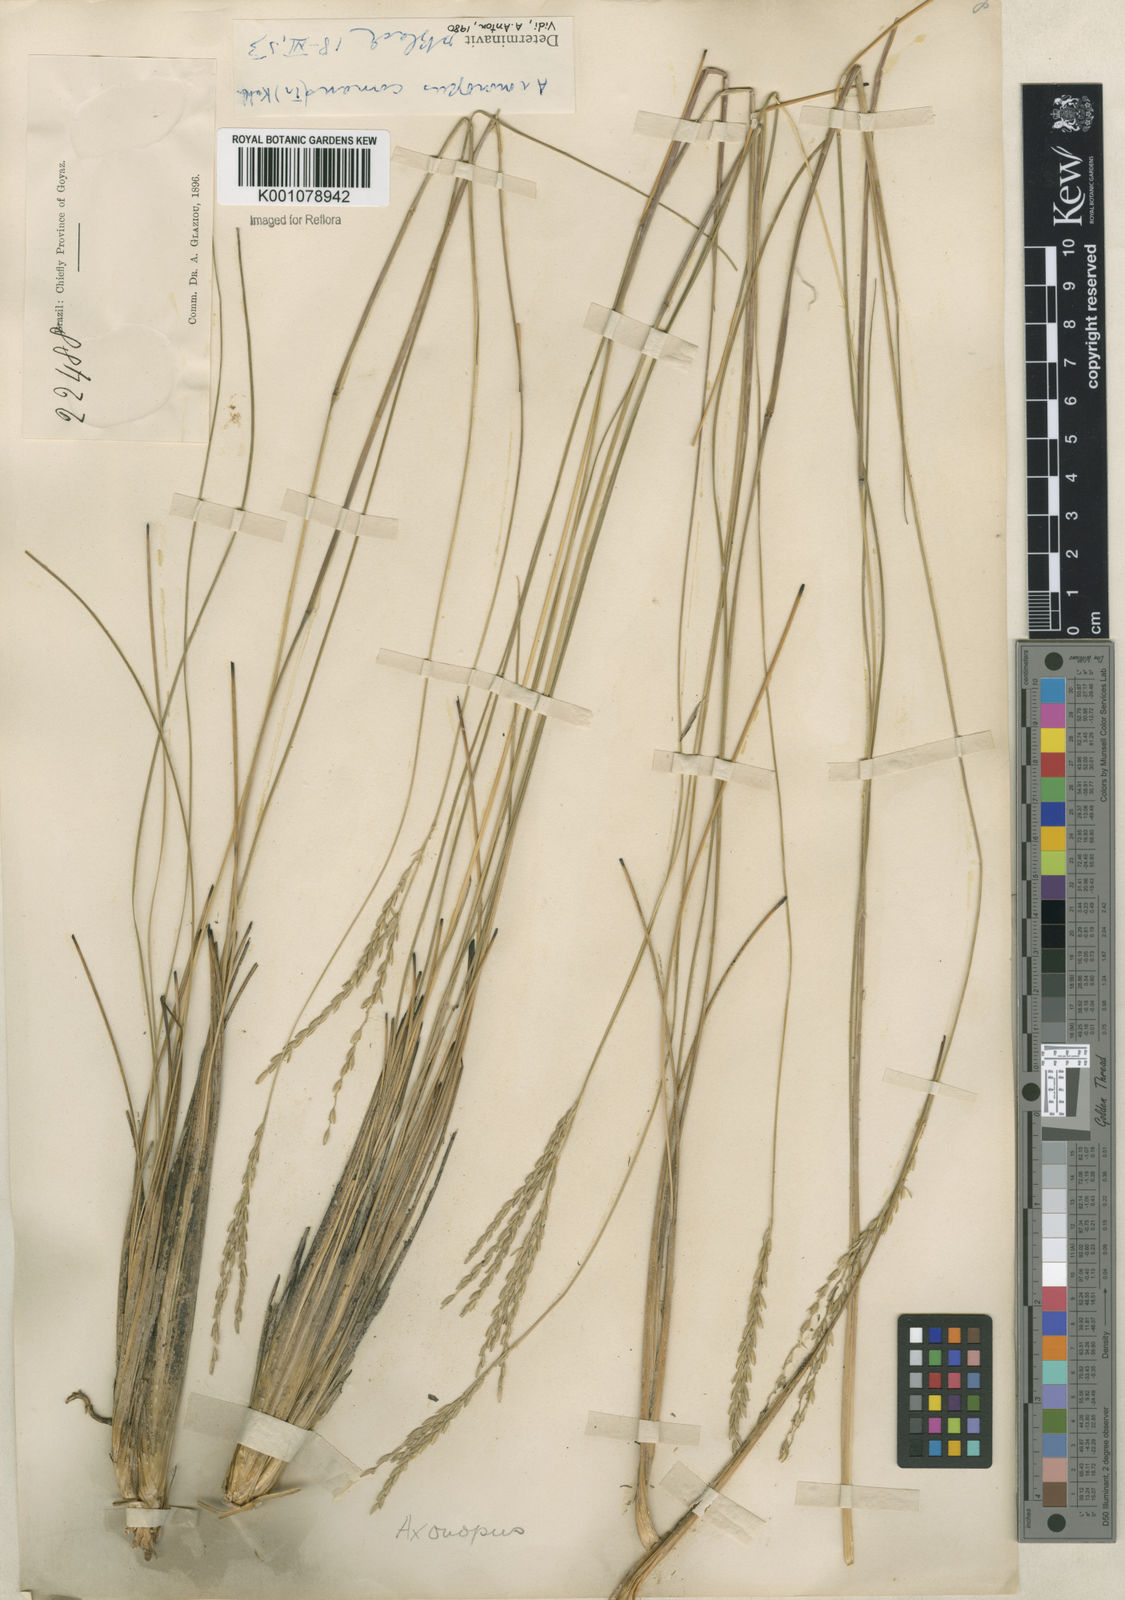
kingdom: Plantae
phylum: Tracheophyta
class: Liliopsida
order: Poales
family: Poaceae
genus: Axonopus
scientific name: Axonopus
